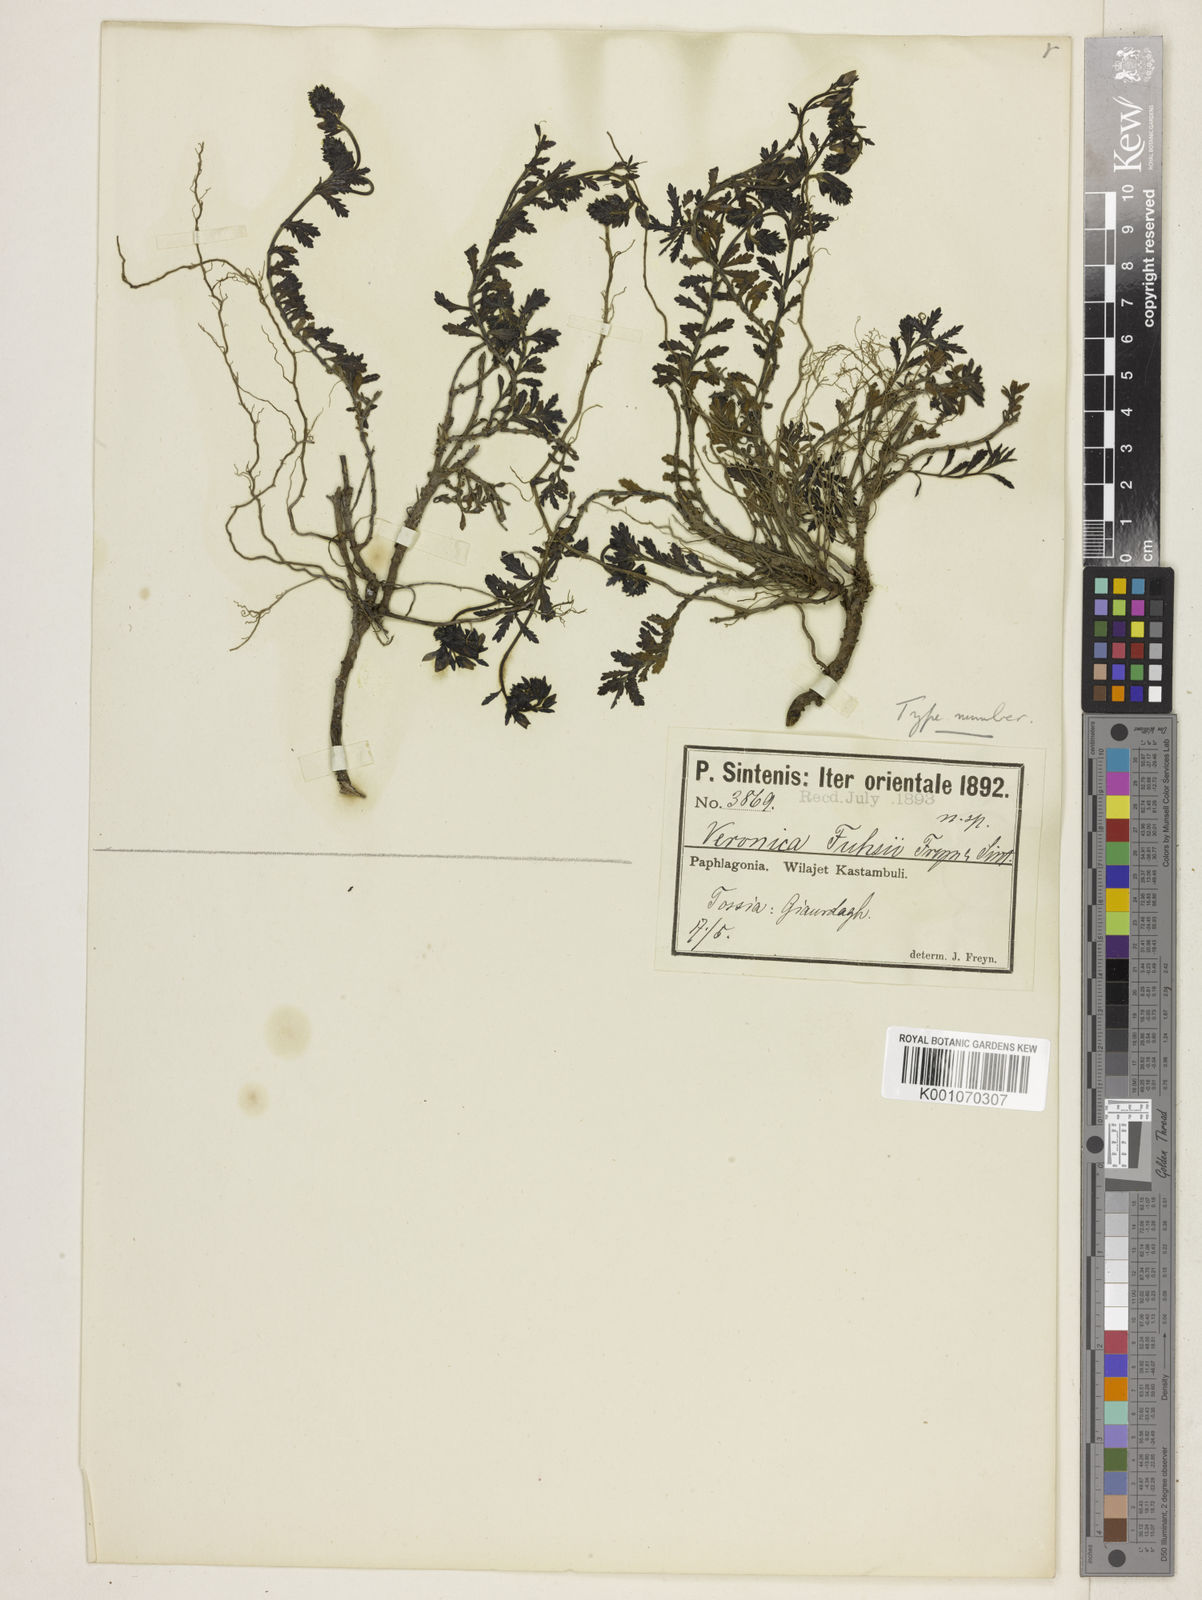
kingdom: Plantae
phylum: Tracheophyta
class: Magnoliopsida
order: Lamiales
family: Plantaginaceae
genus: Veronica
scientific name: Veronica fuhsii
